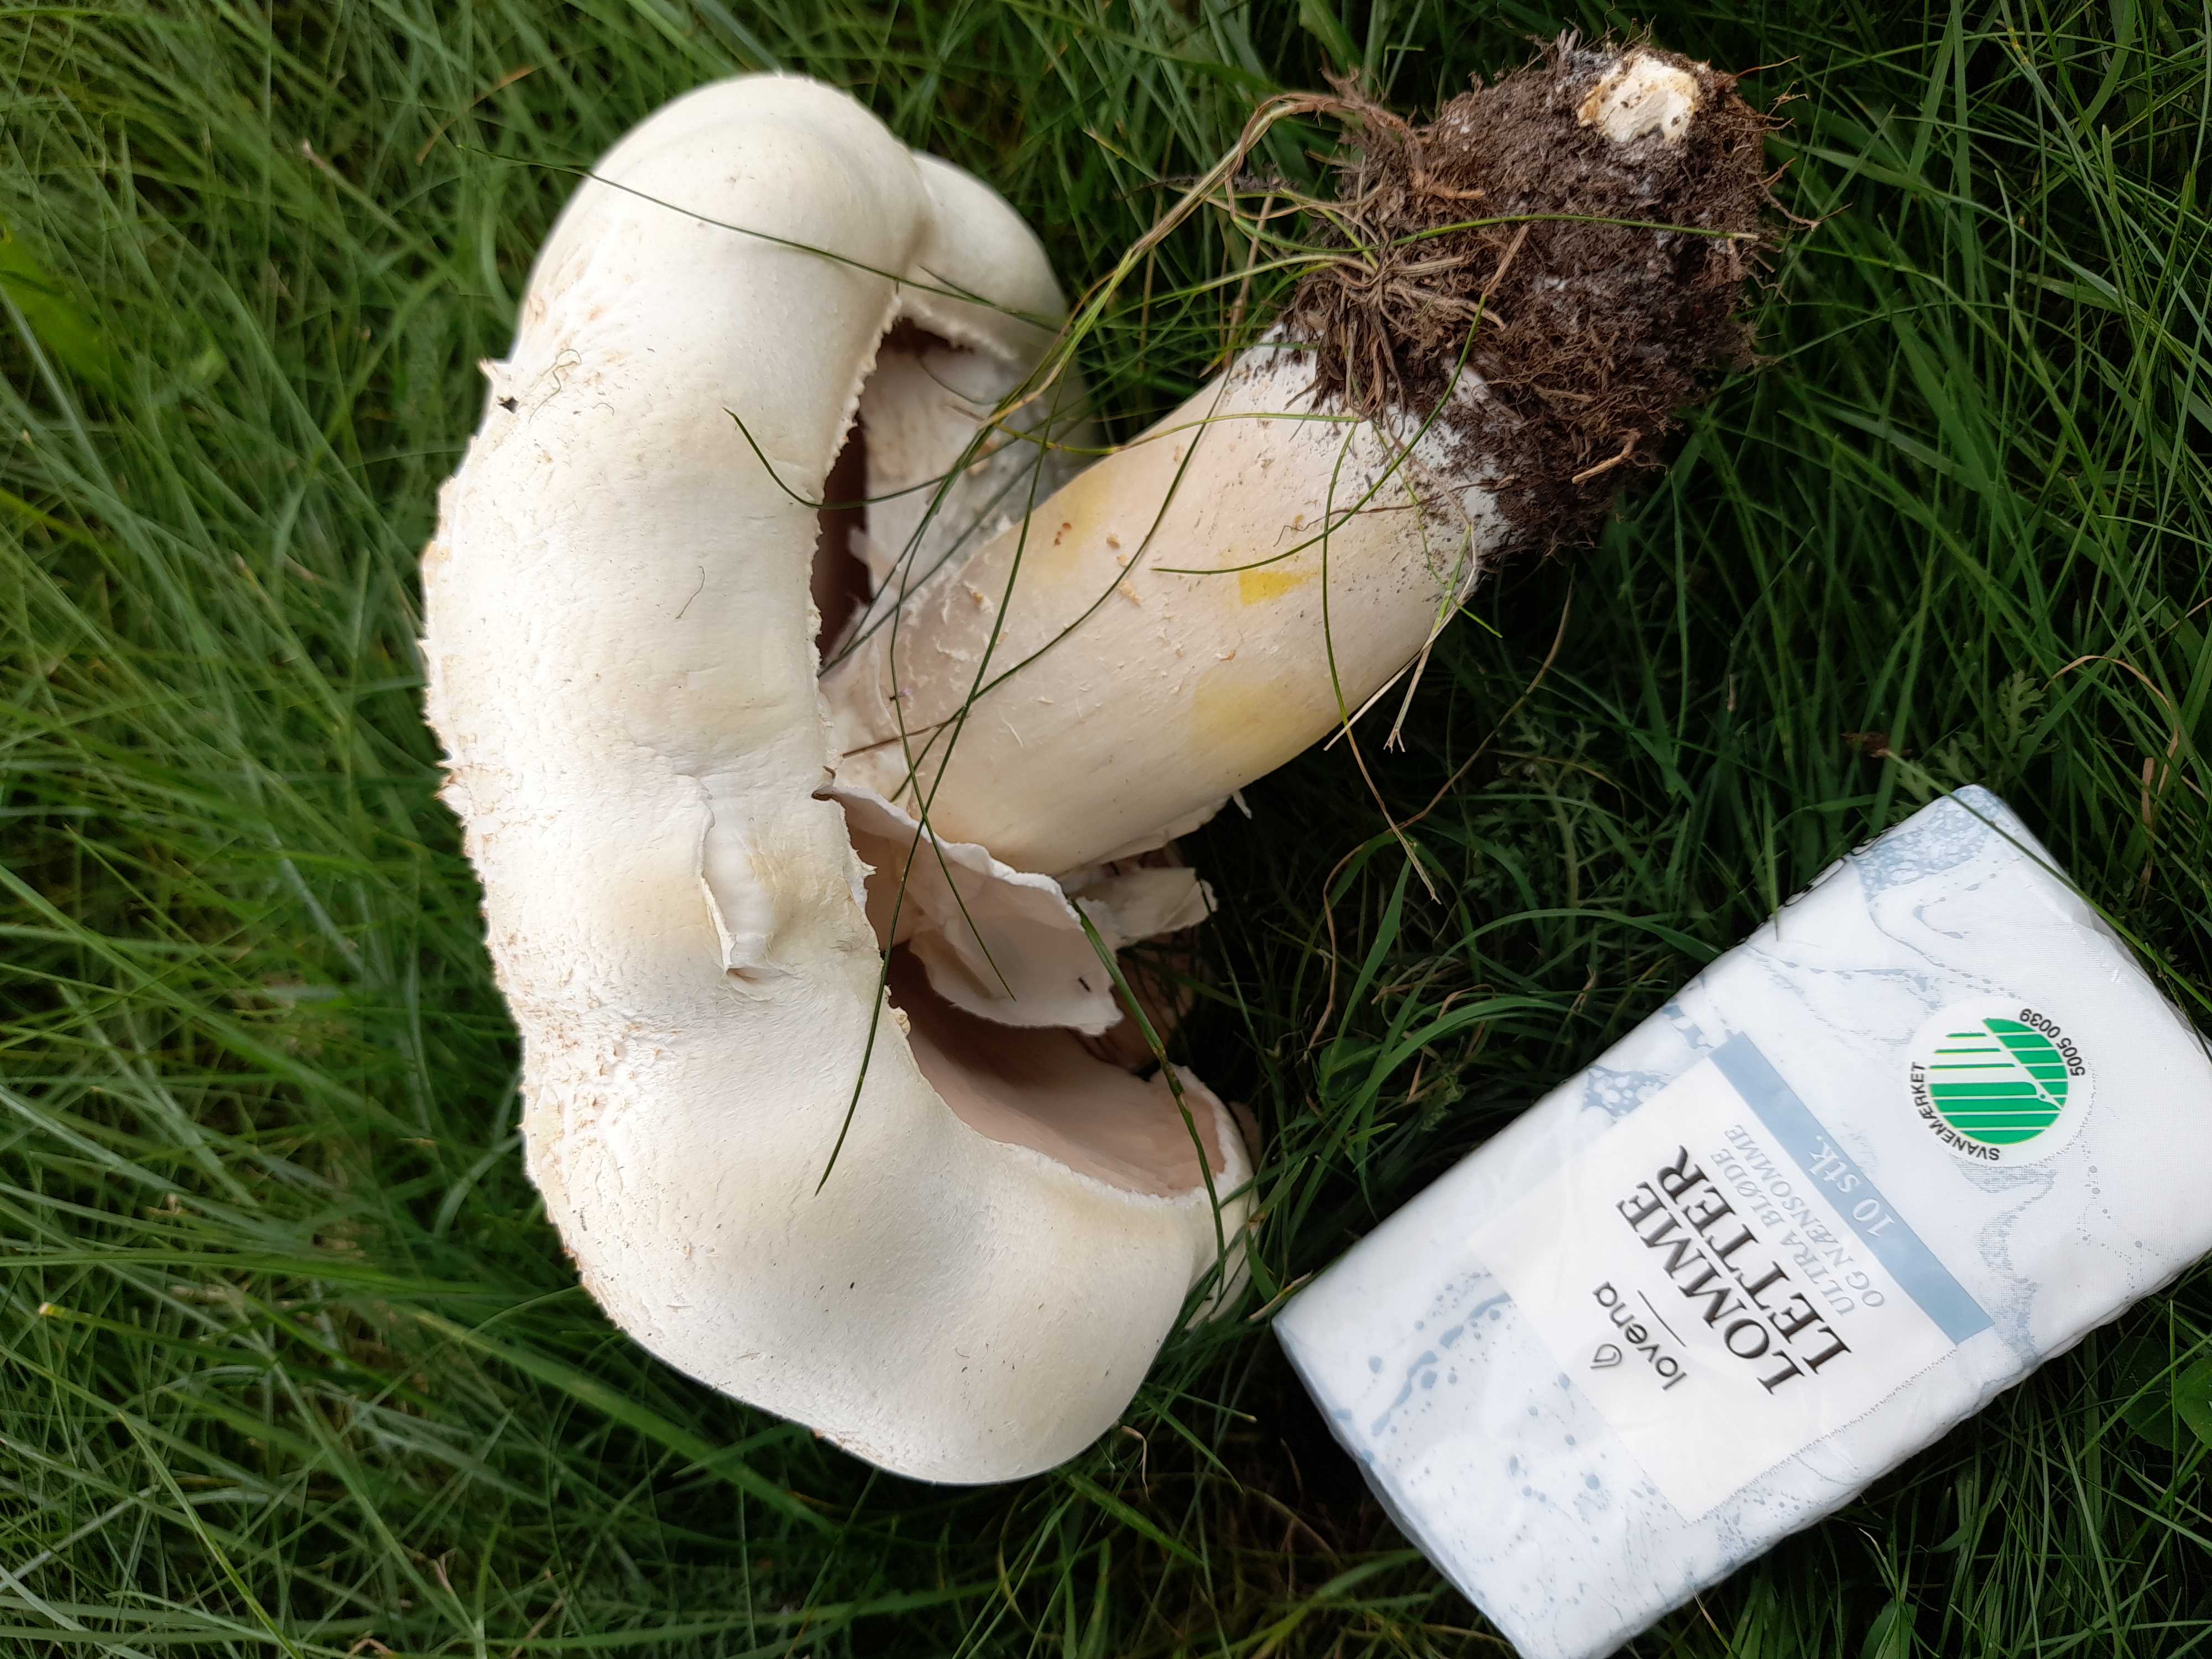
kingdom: Fungi
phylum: Basidiomycota
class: Agaricomycetes
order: Agaricales
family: Agaricaceae
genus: Agaricus
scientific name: Agaricus arvensis
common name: ager-champignon
